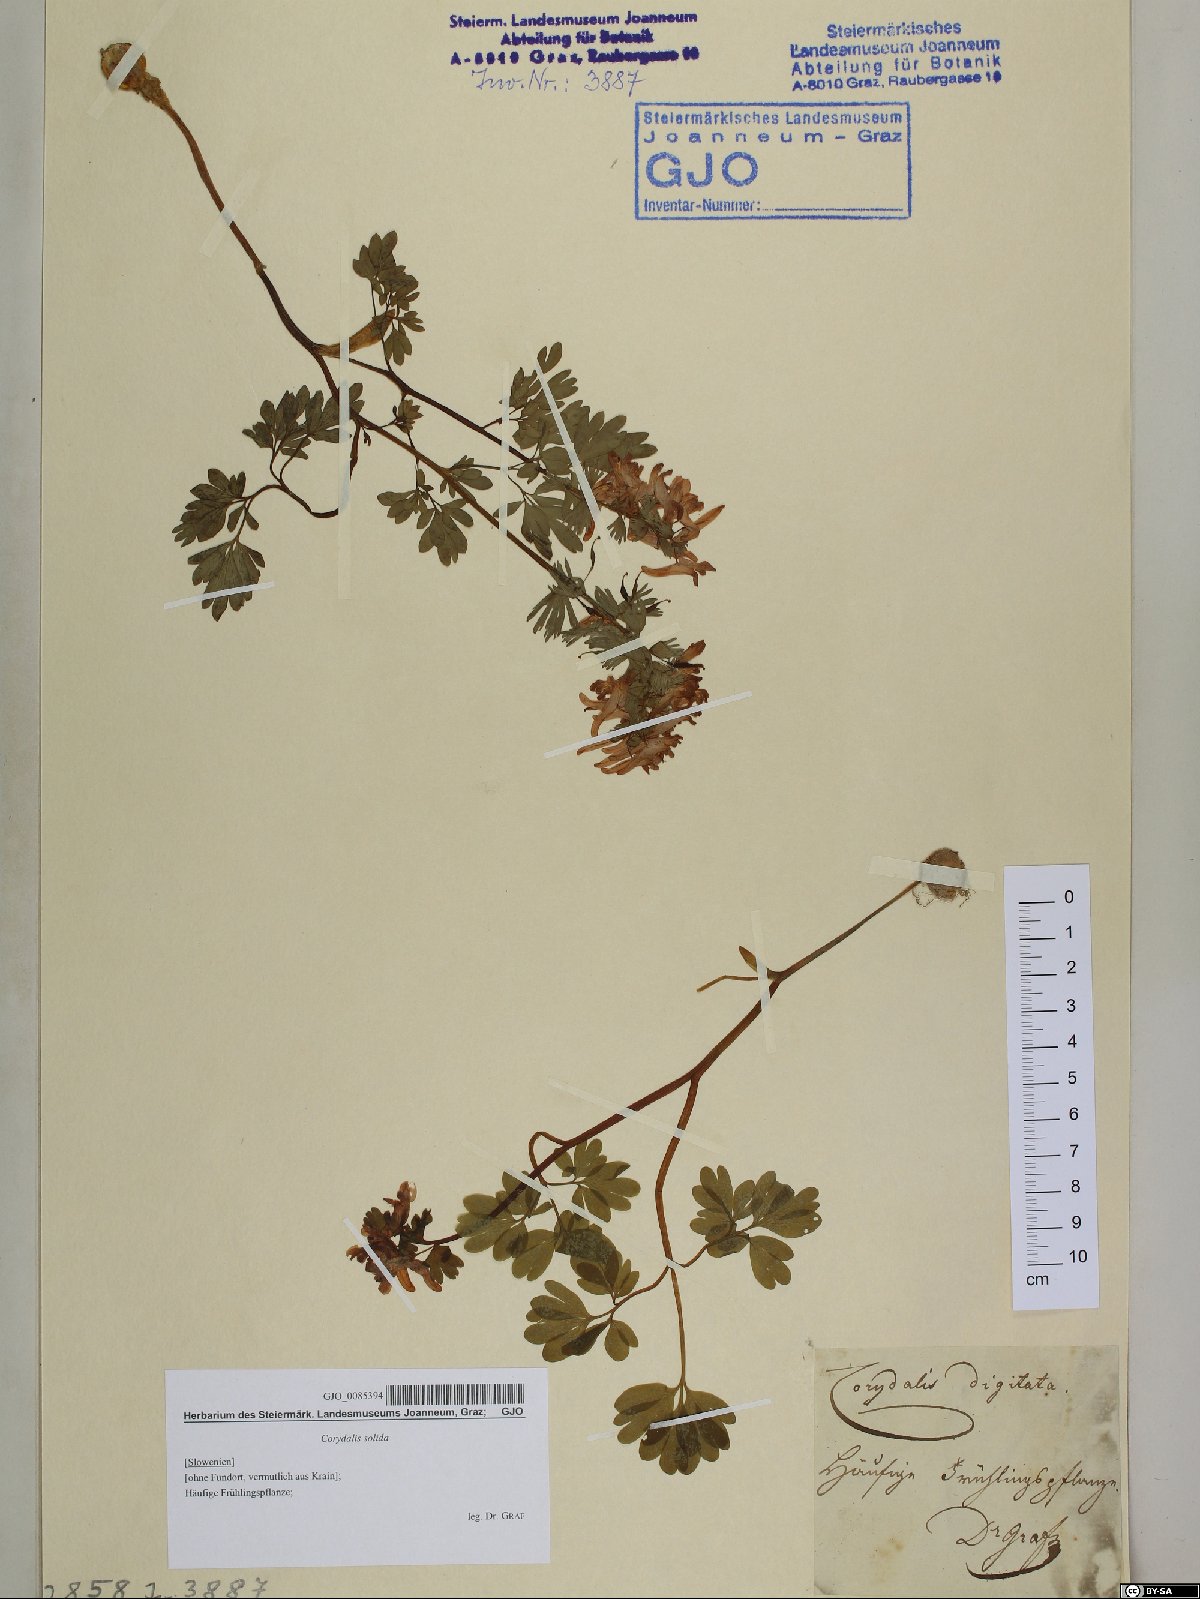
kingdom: Plantae
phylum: Tracheophyta
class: Magnoliopsida
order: Ranunculales
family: Papaveraceae
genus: Corydalis
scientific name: Corydalis solida
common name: Bird-in-a-bush
